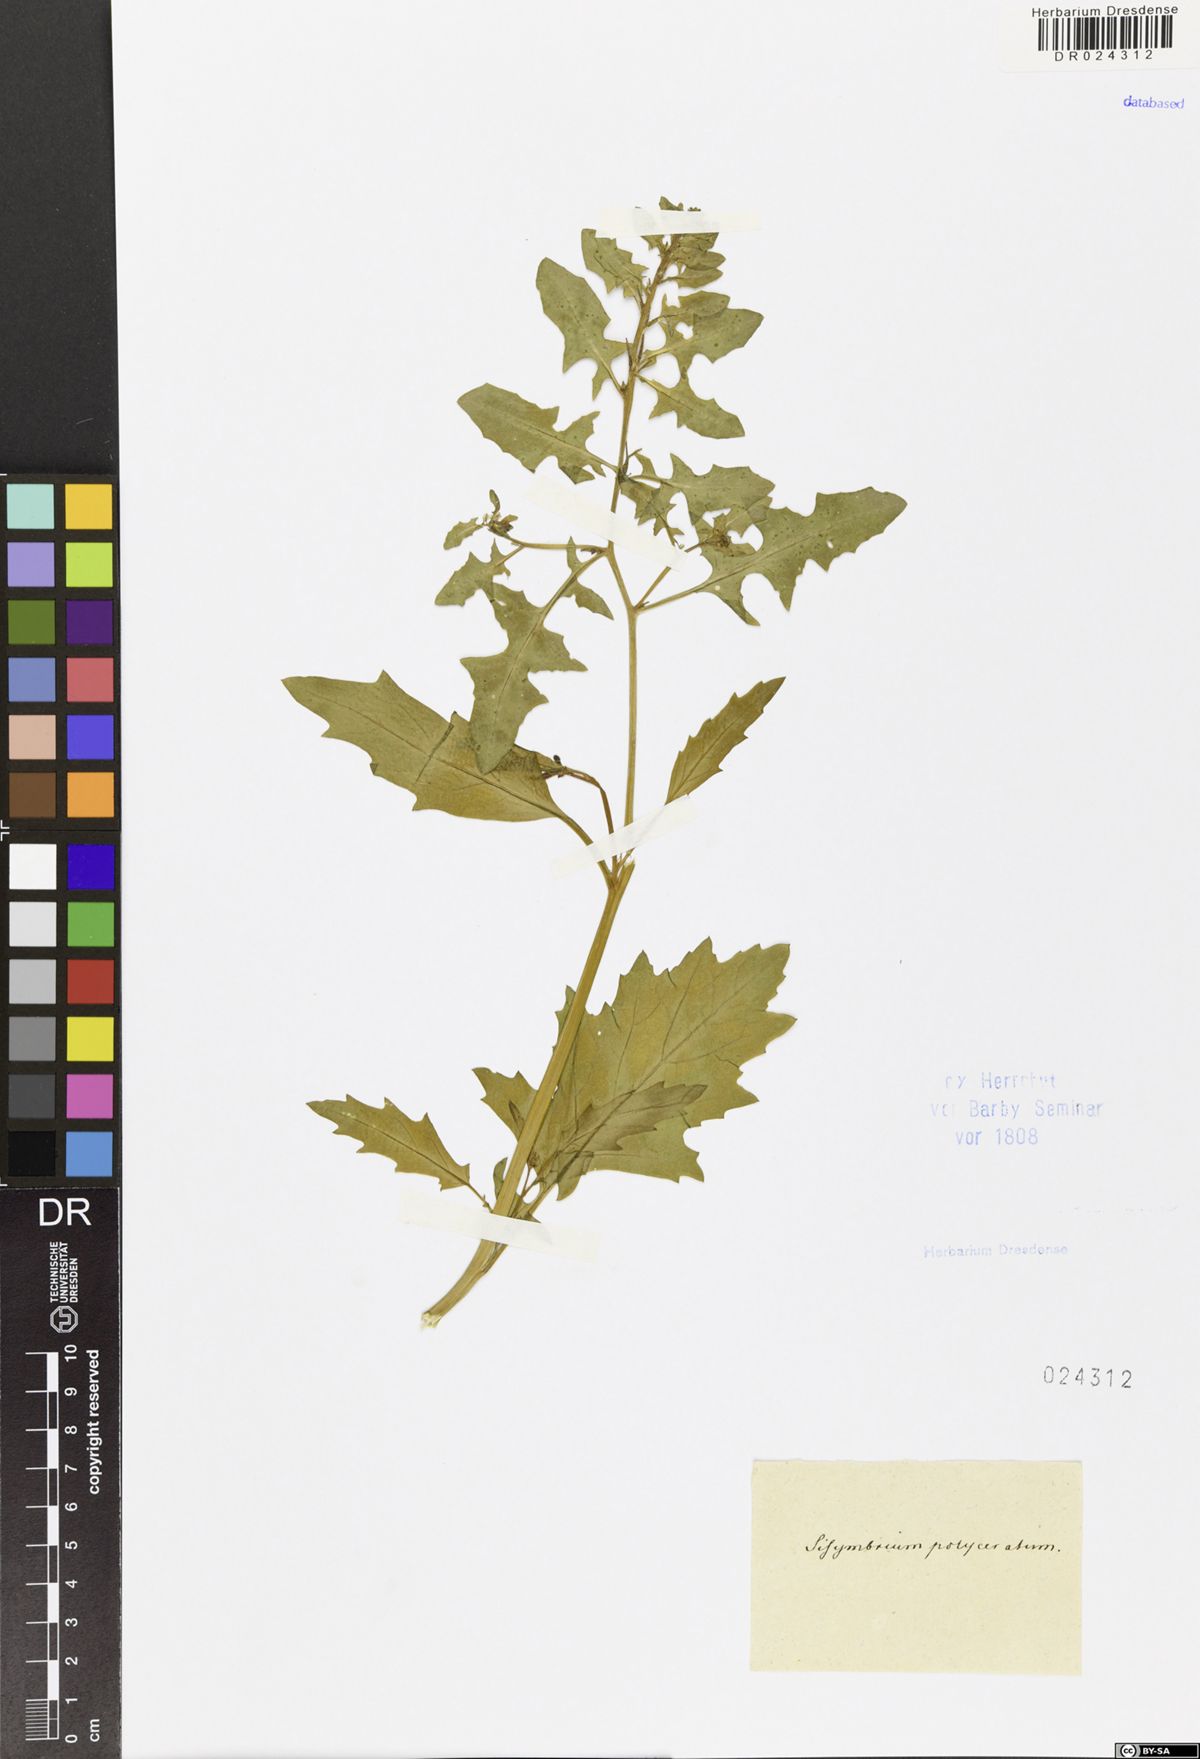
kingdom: Plantae
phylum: Tracheophyta
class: Magnoliopsida
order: Brassicales
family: Brassicaceae
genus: Sisymbrium
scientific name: Sisymbrium polyceratium
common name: Shortfruit hedgemustard
